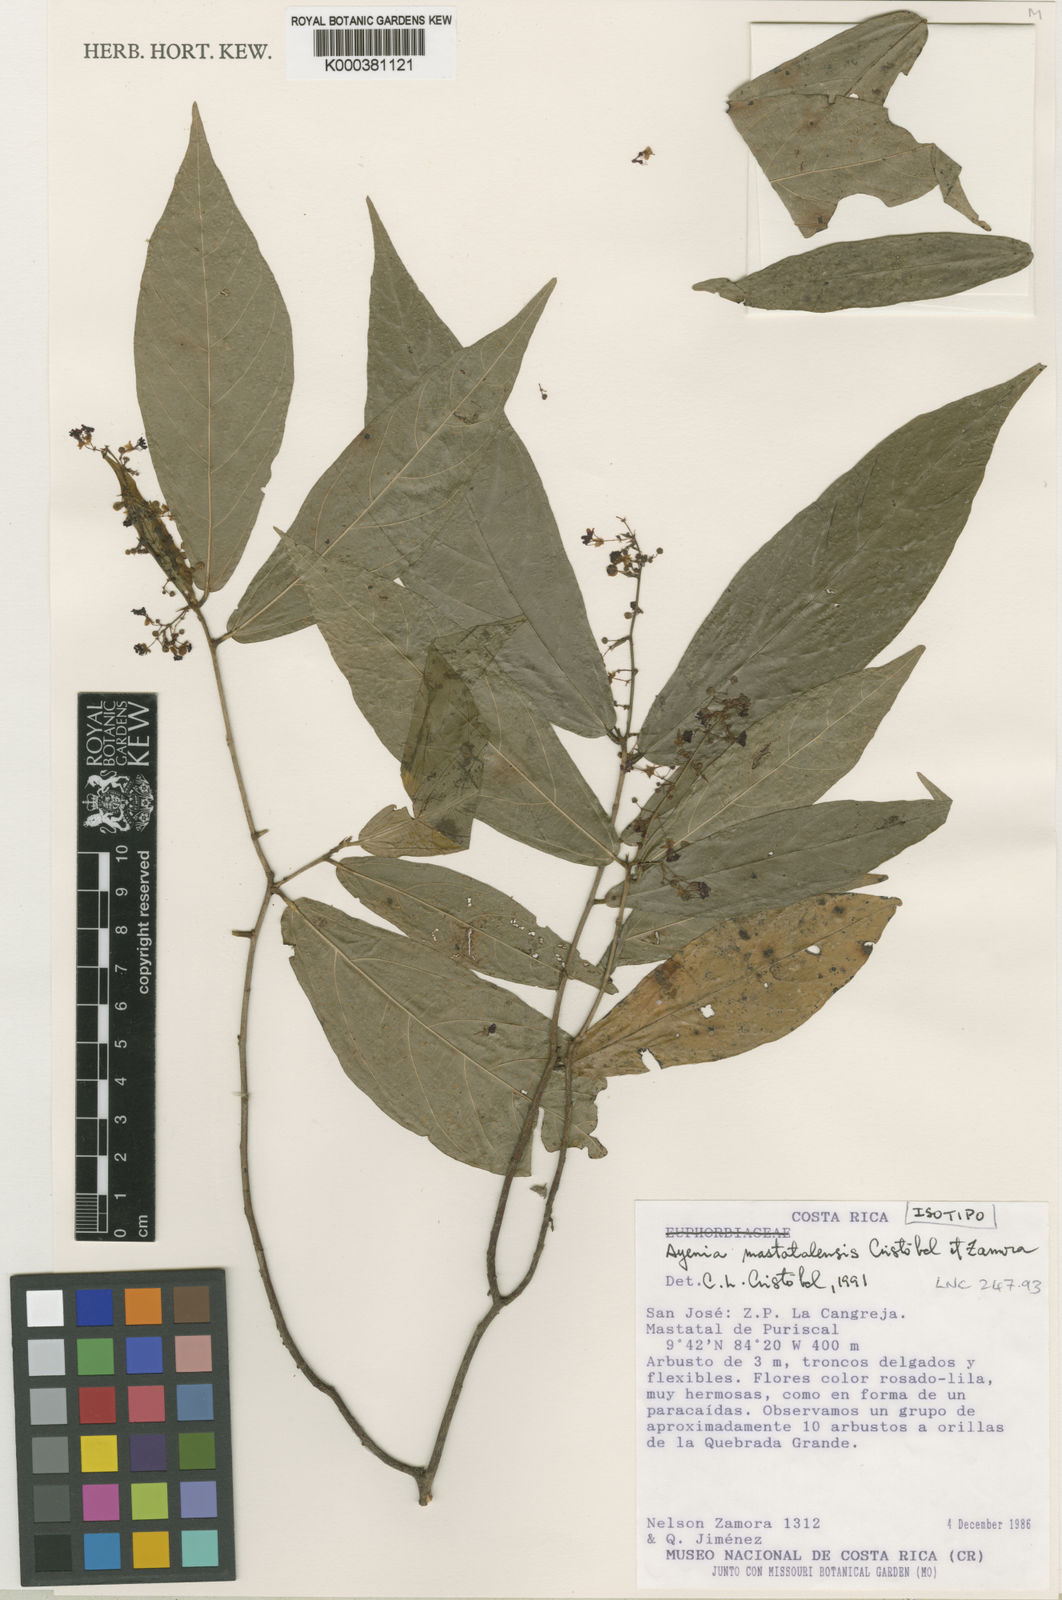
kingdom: Plantae
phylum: Tracheophyta
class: Magnoliopsida
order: Malvales
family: Malvaceae
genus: Ayenia
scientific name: Ayenia
